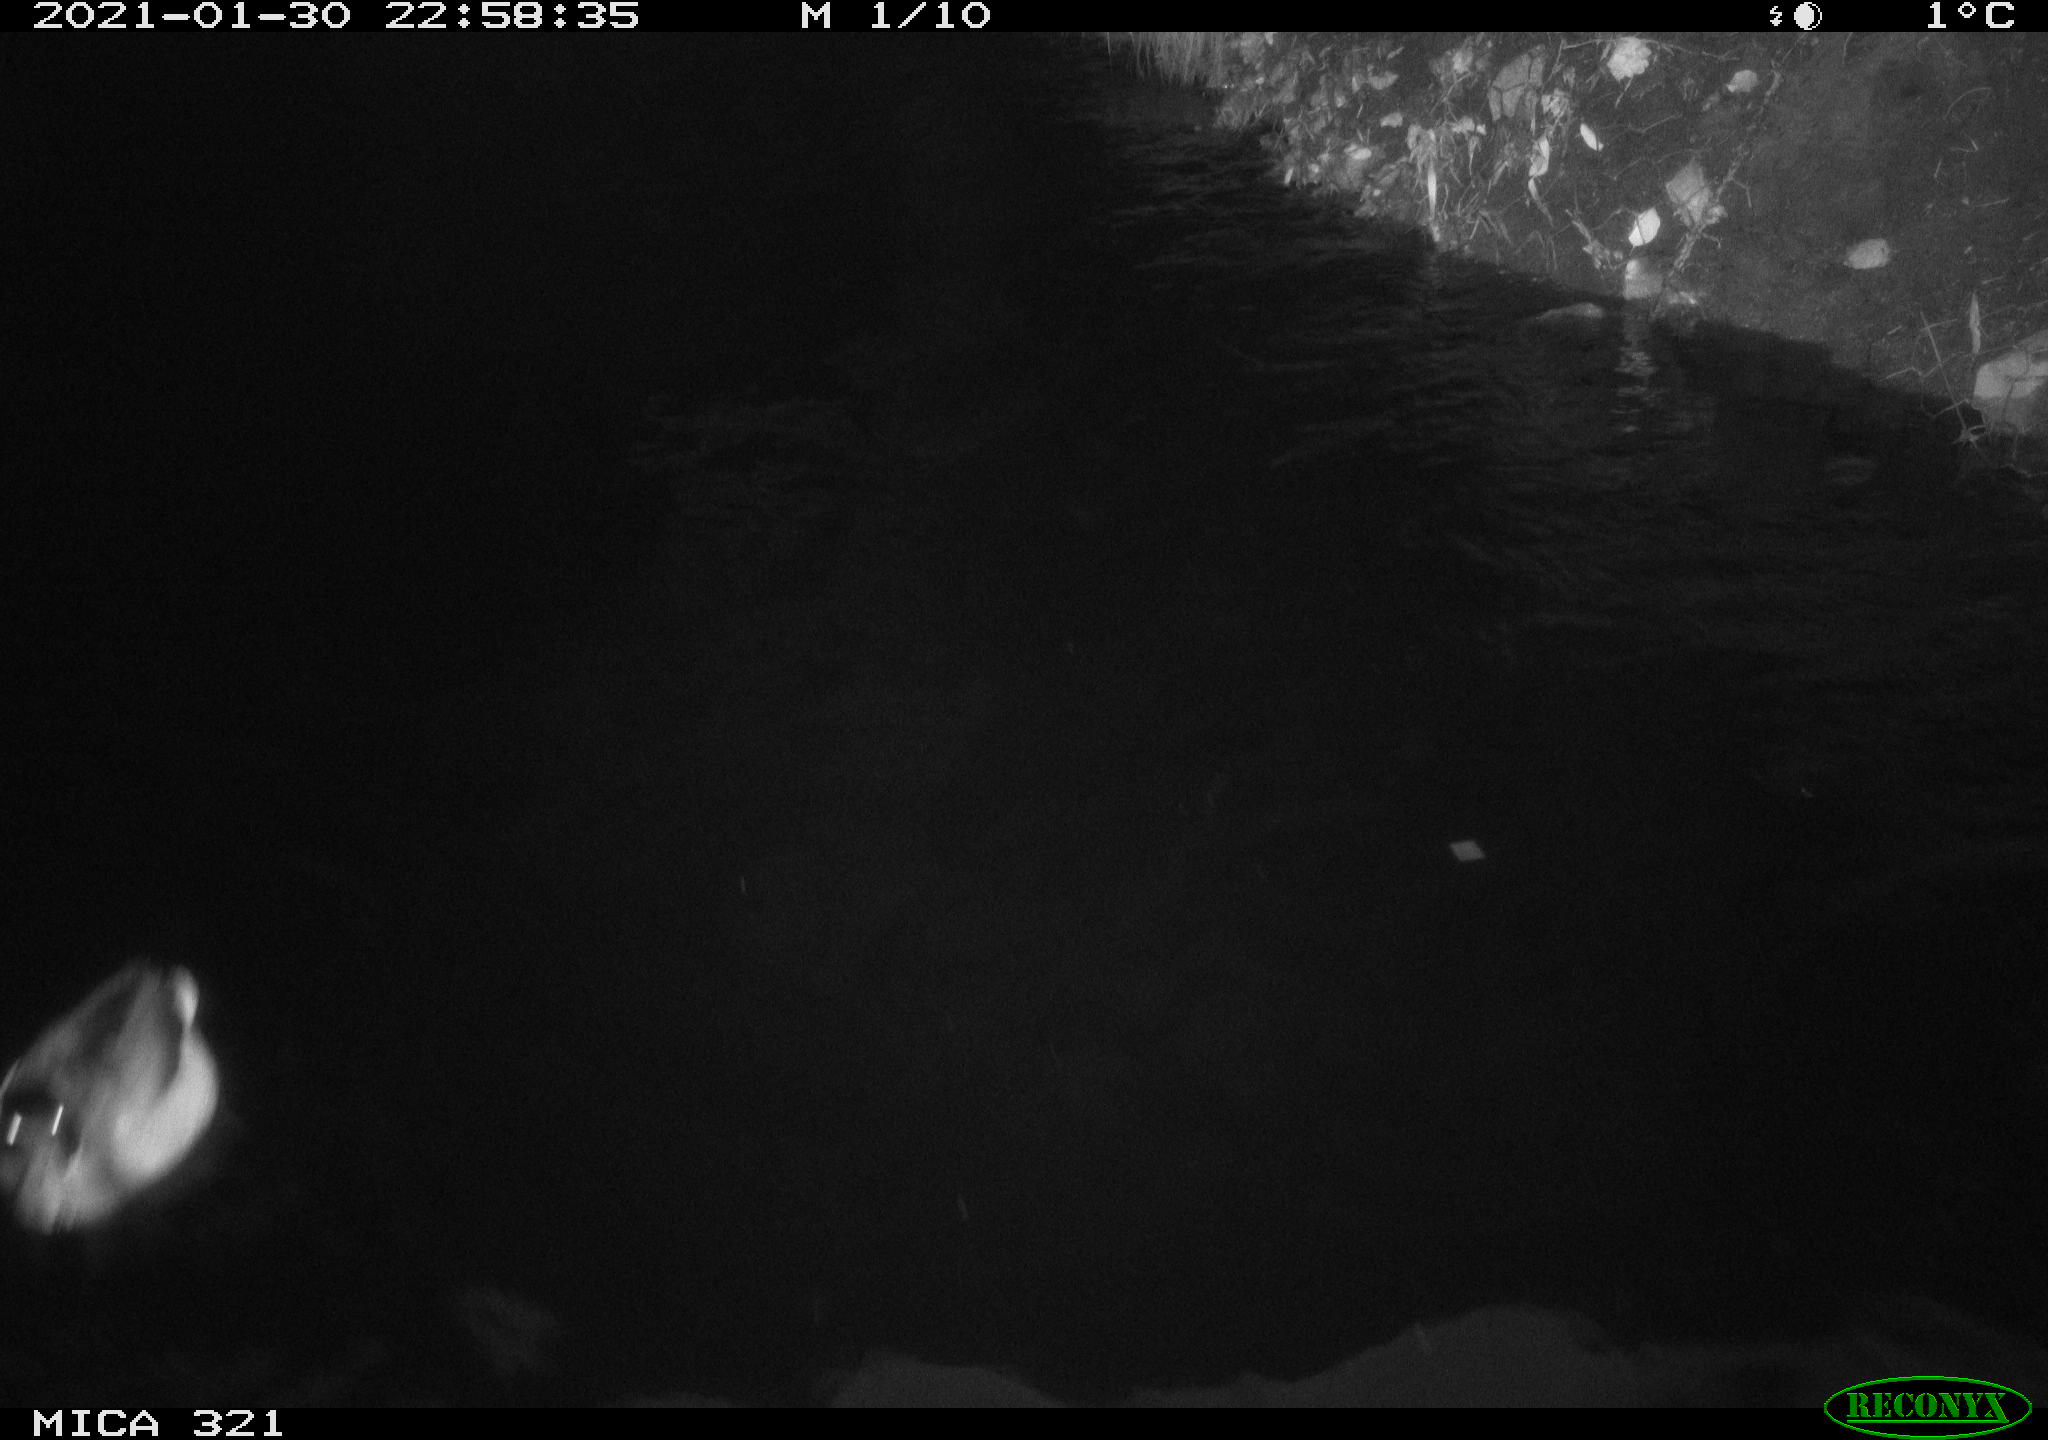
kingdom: Animalia
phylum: Chordata
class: Aves
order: Anseriformes
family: Anatidae
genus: Anas
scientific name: Anas platyrhynchos
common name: Mallard
